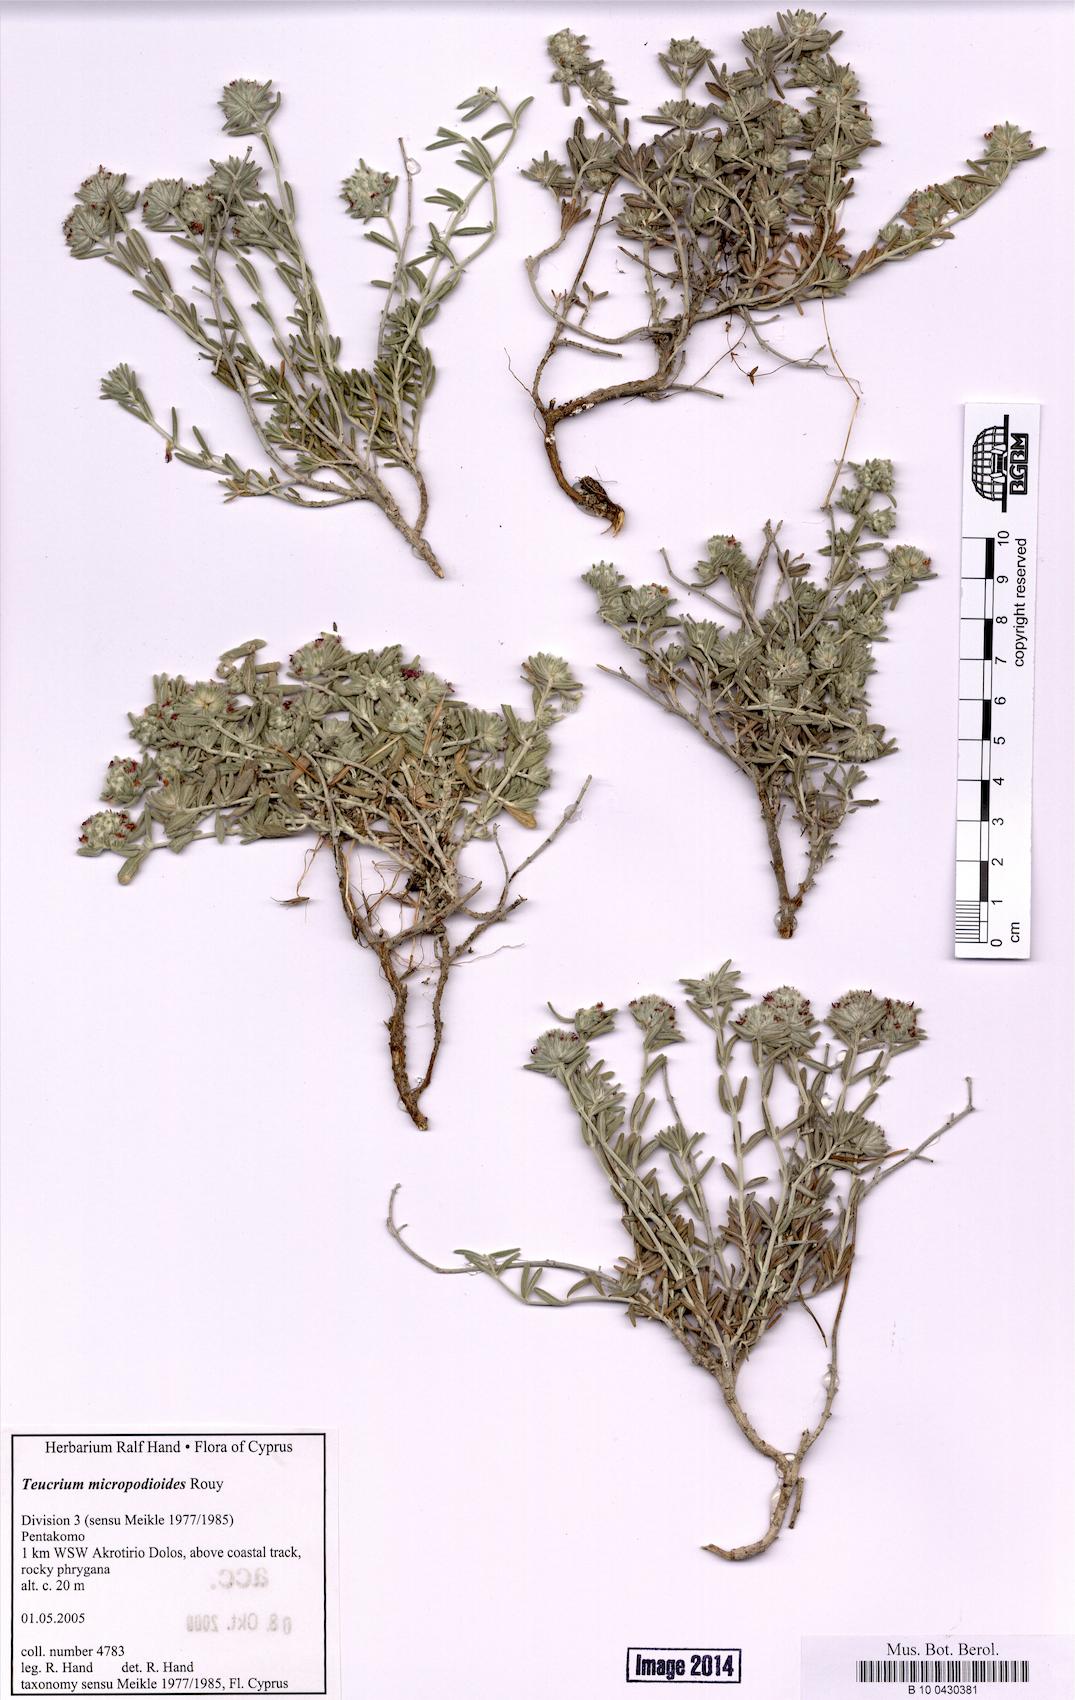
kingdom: Plantae
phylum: Tracheophyta
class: Magnoliopsida
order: Lamiales
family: Lamiaceae
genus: Teucrium
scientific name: Teucrium micropodioides
